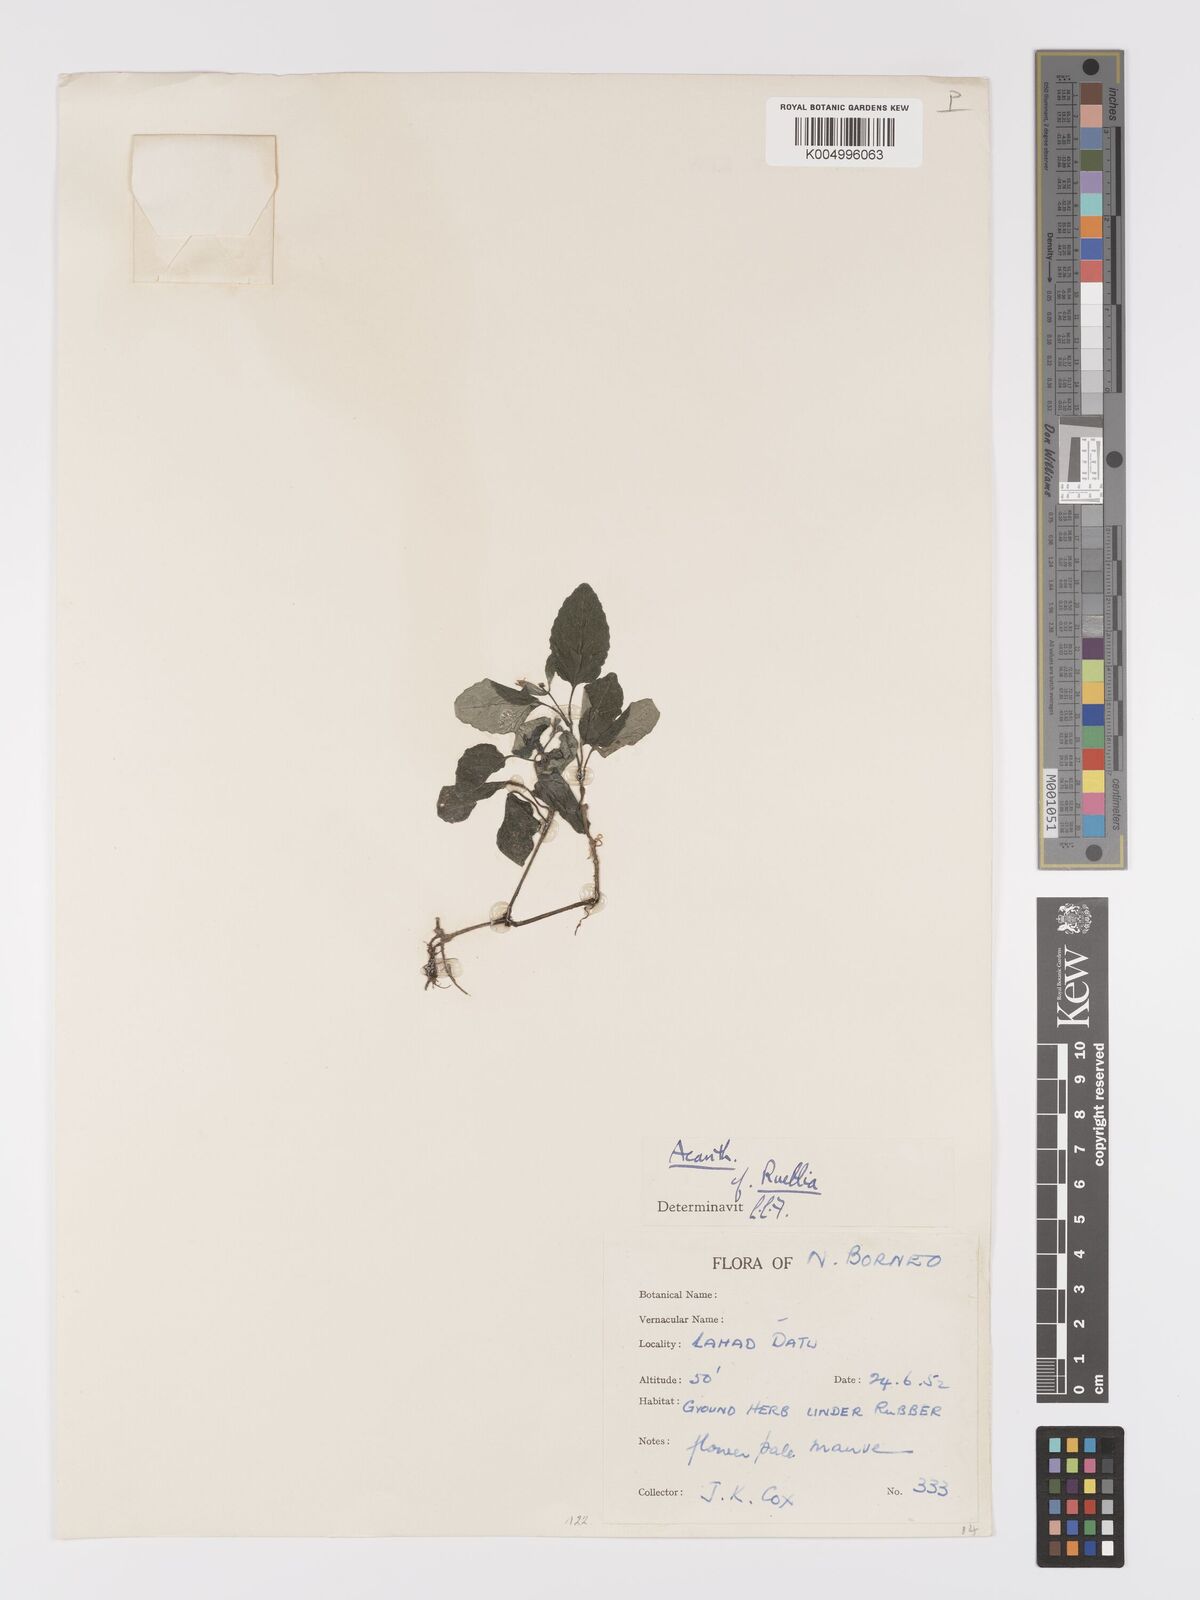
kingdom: Plantae
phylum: Tracheophyta
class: Magnoliopsida
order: Lamiales
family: Acanthaceae
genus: Ruellia
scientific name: Ruellia
